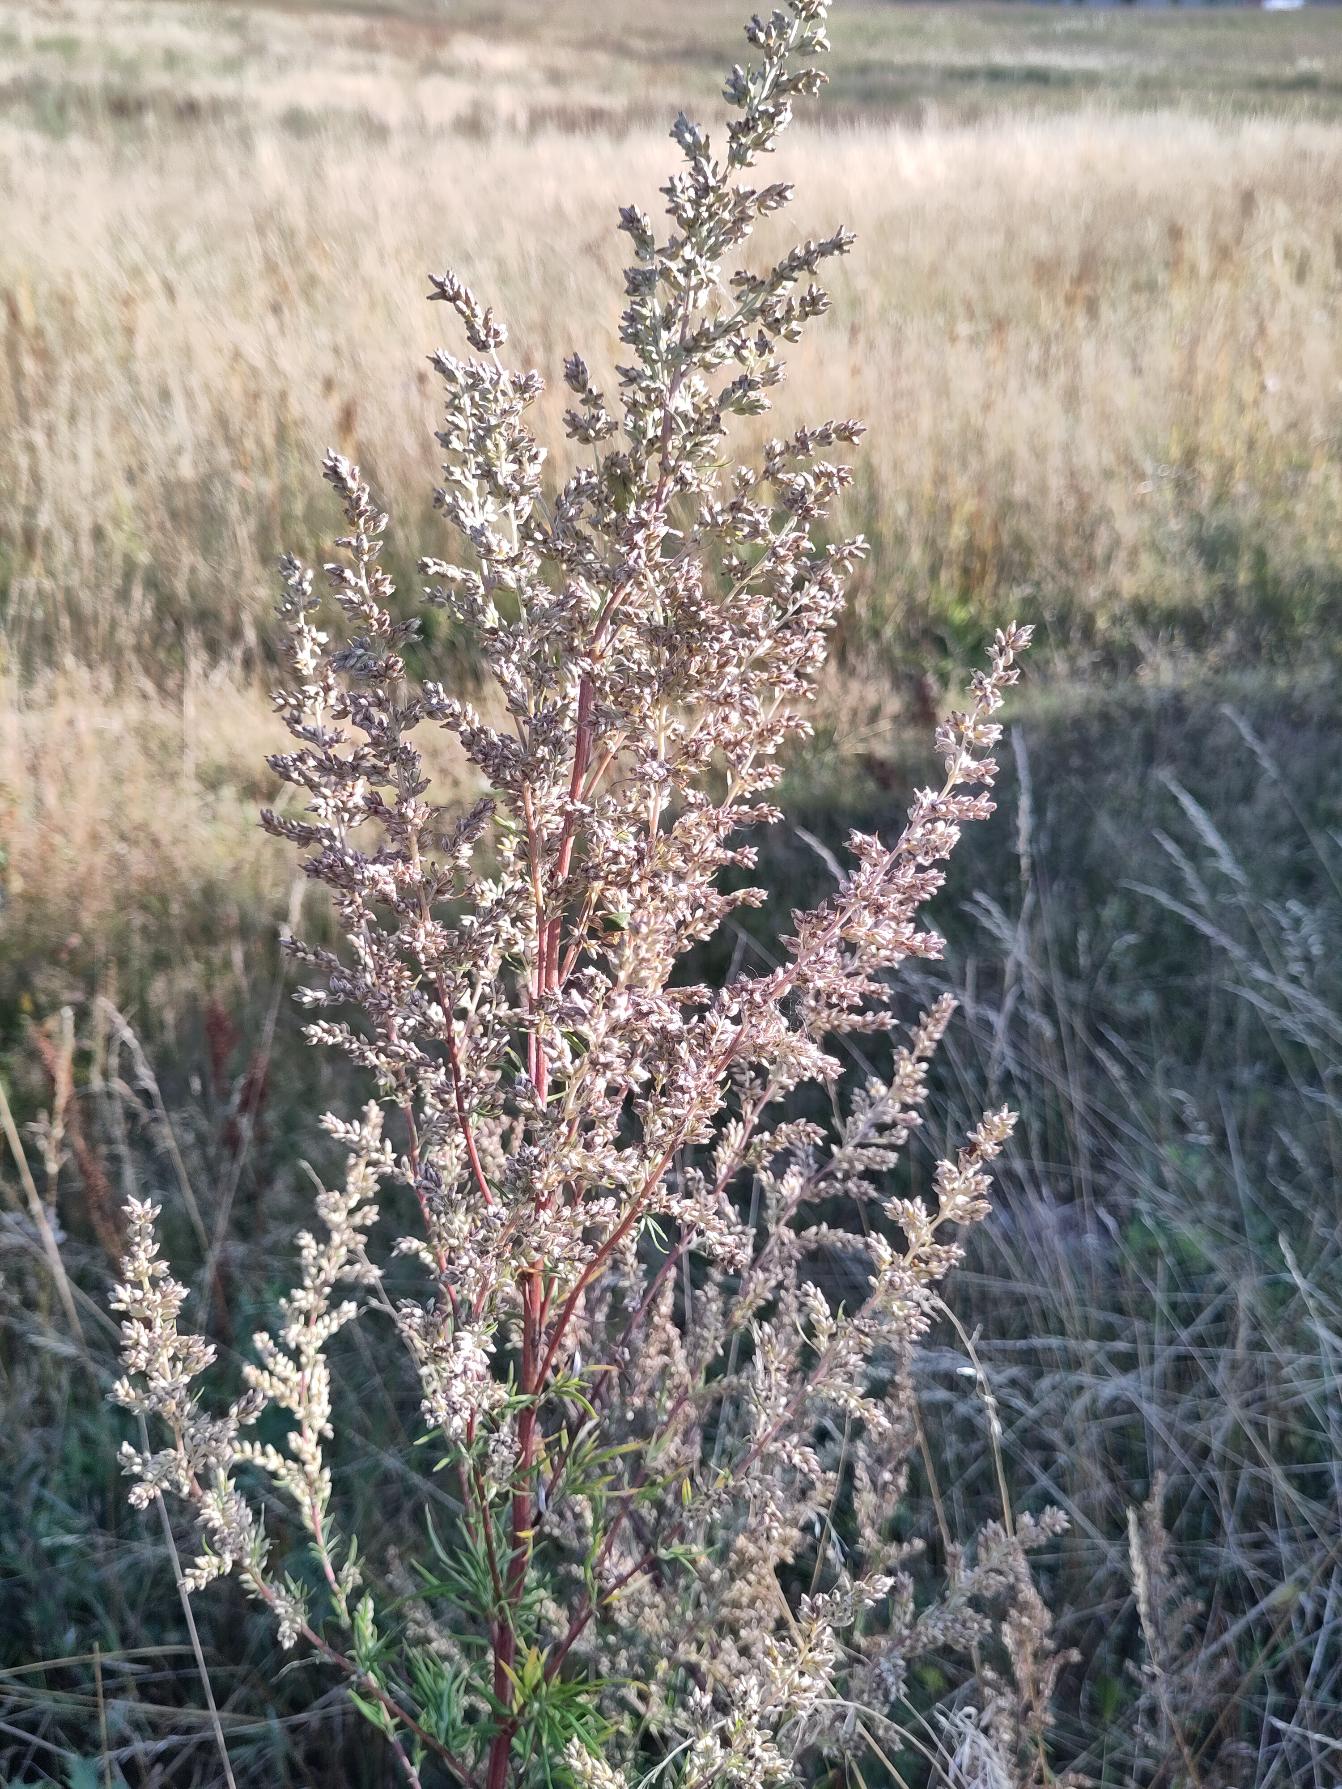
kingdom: Plantae
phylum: Tracheophyta
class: Magnoliopsida
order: Asterales
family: Asteraceae
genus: Artemisia
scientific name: Artemisia vulgaris
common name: Grå-bynke
